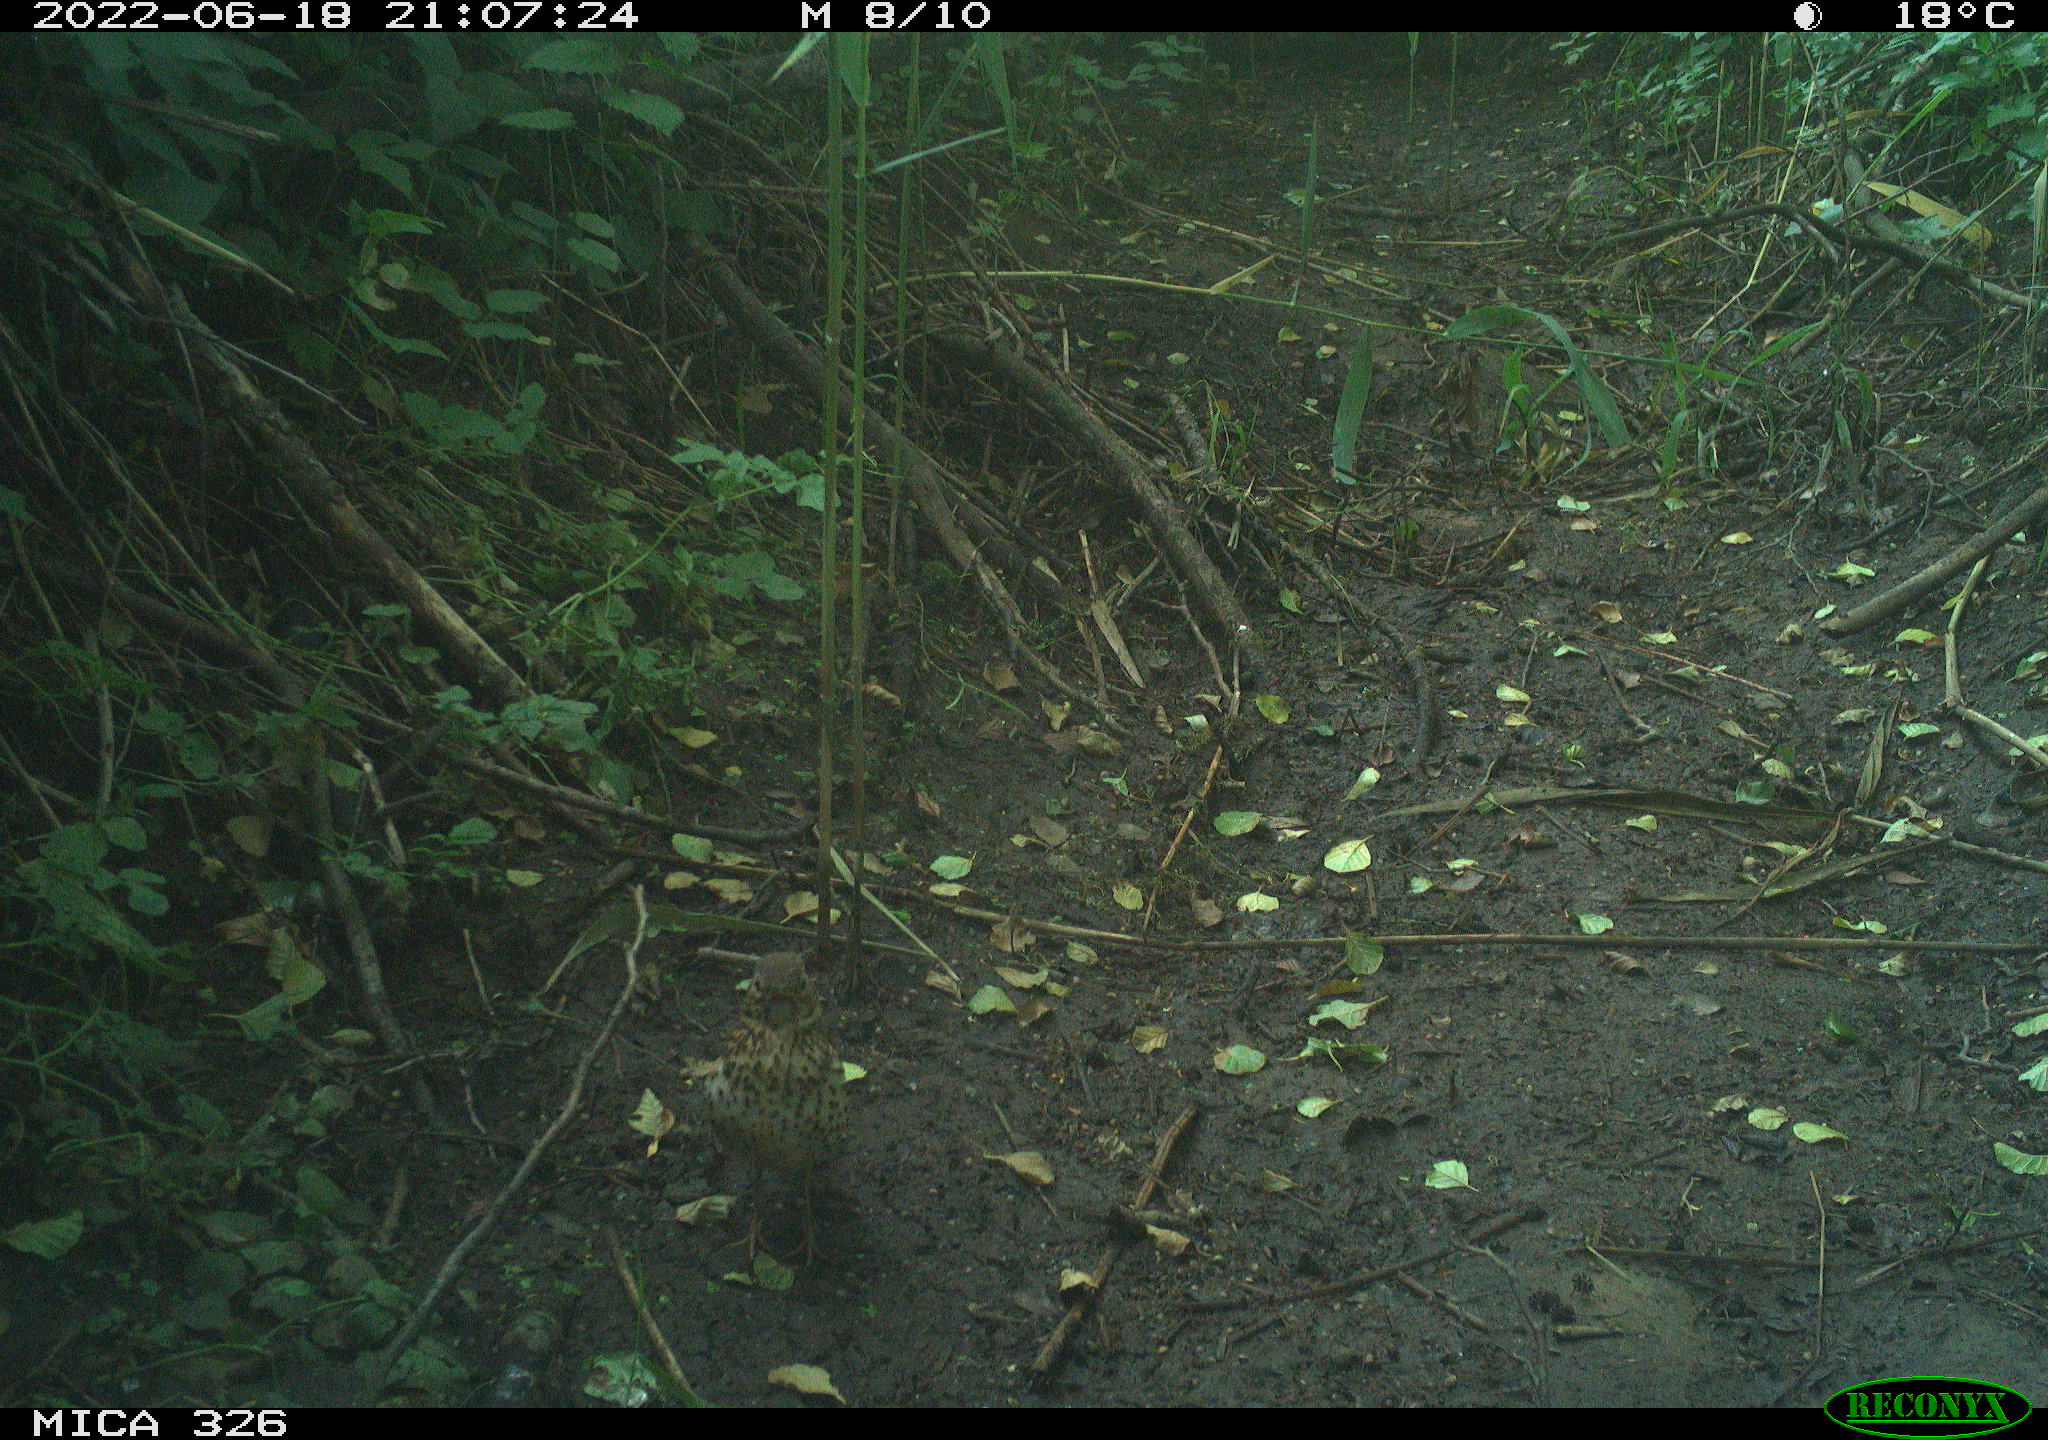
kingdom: Animalia
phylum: Chordata
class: Aves
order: Passeriformes
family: Turdidae
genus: Turdus
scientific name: Turdus philomelos
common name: Song thrush
